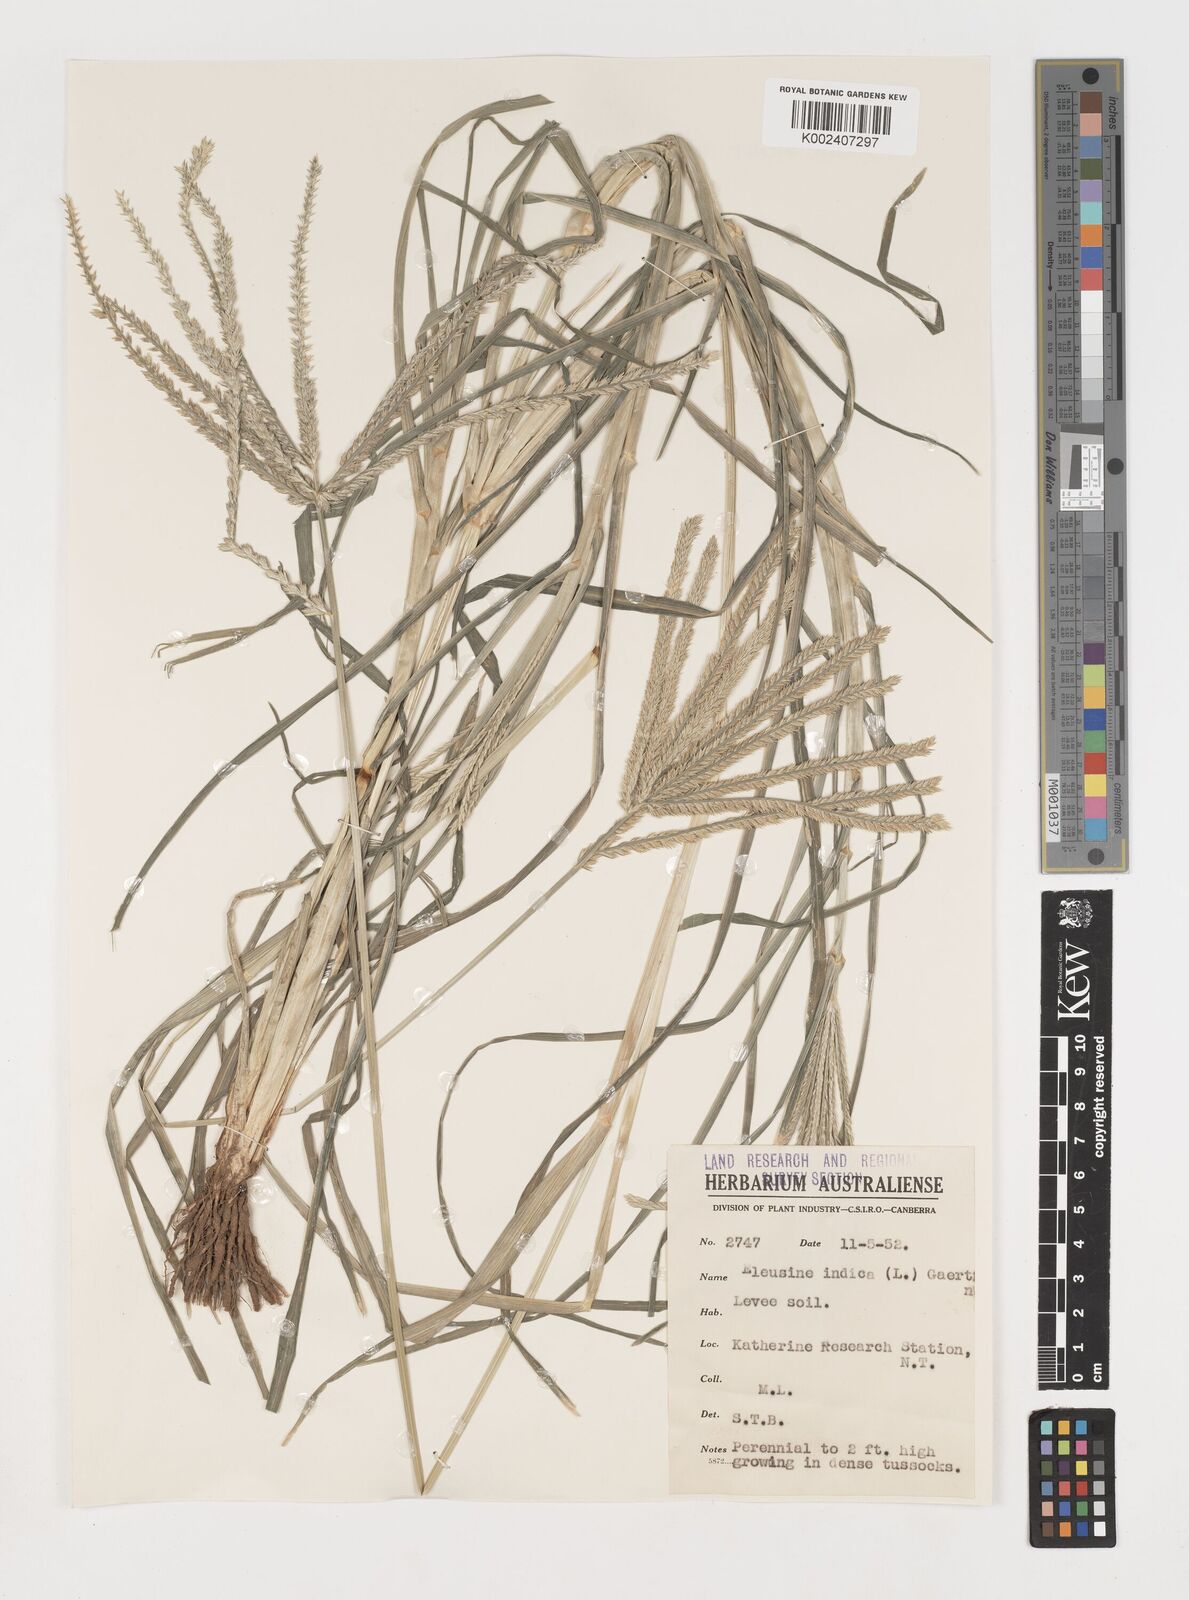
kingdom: Plantae
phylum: Tracheophyta
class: Liliopsida
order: Poales
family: Poaceae
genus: Eleusine
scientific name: Eleusine indica
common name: Yard-grass
